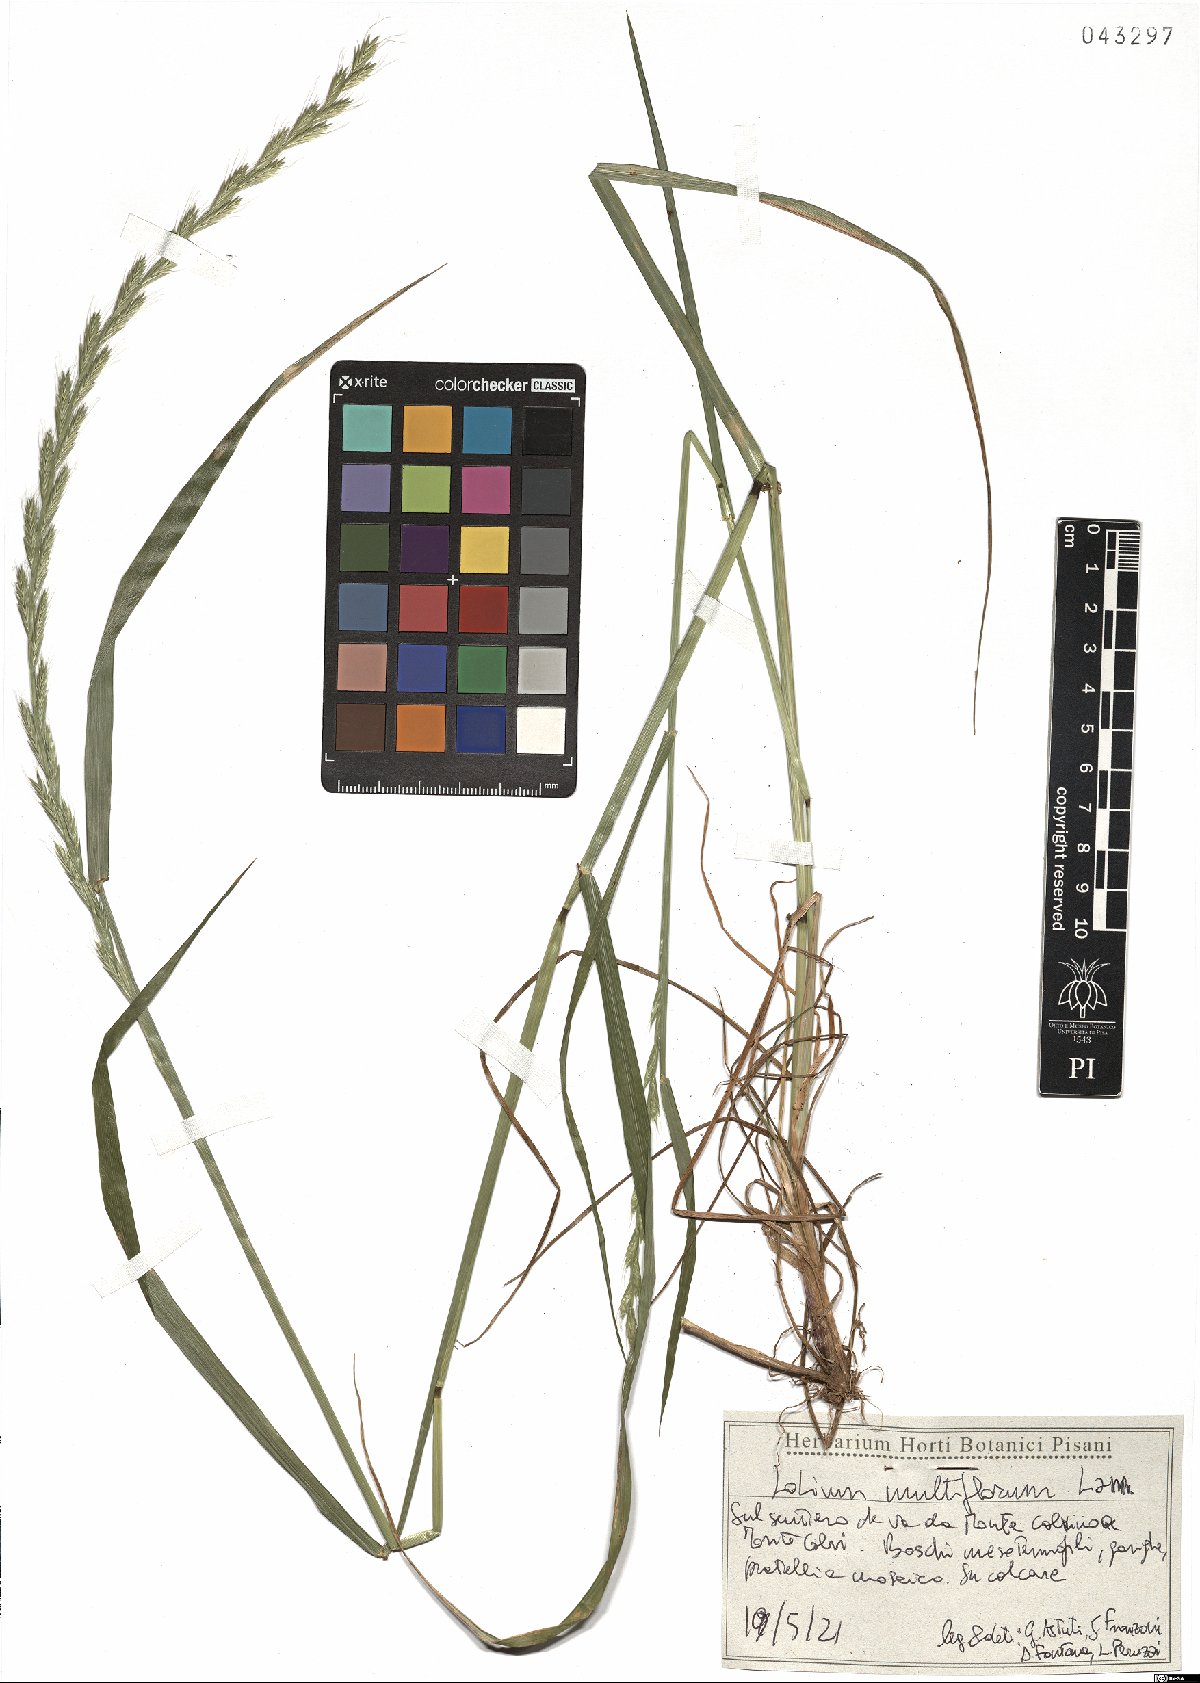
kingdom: Plantae
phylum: Tracheophyta
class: Liliopsida
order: Poales
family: Poaceae
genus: Lolium
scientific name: Lolium multiflorum
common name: Annual ryegrass
